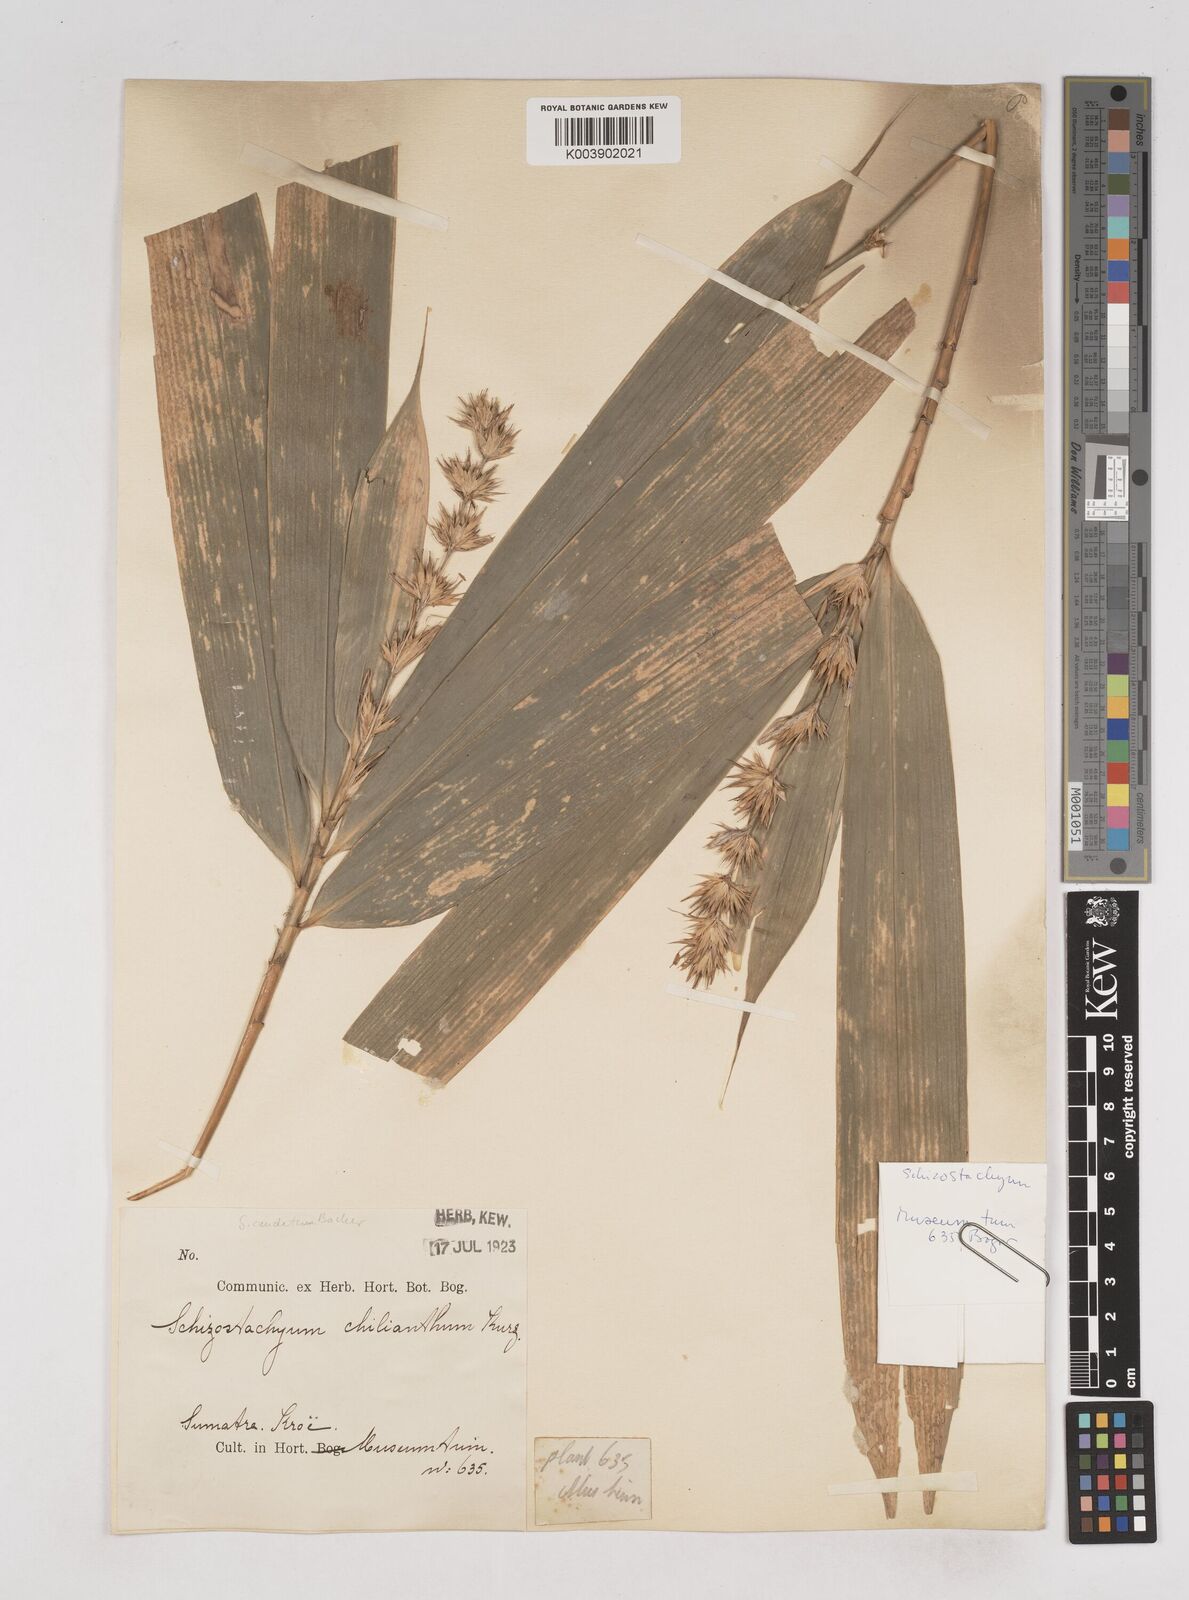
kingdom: Plantae
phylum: Tracheophyta
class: Liliopsida
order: Poales
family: Poaceae
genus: Schizostachyum
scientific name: Schizostachyum caudatum
